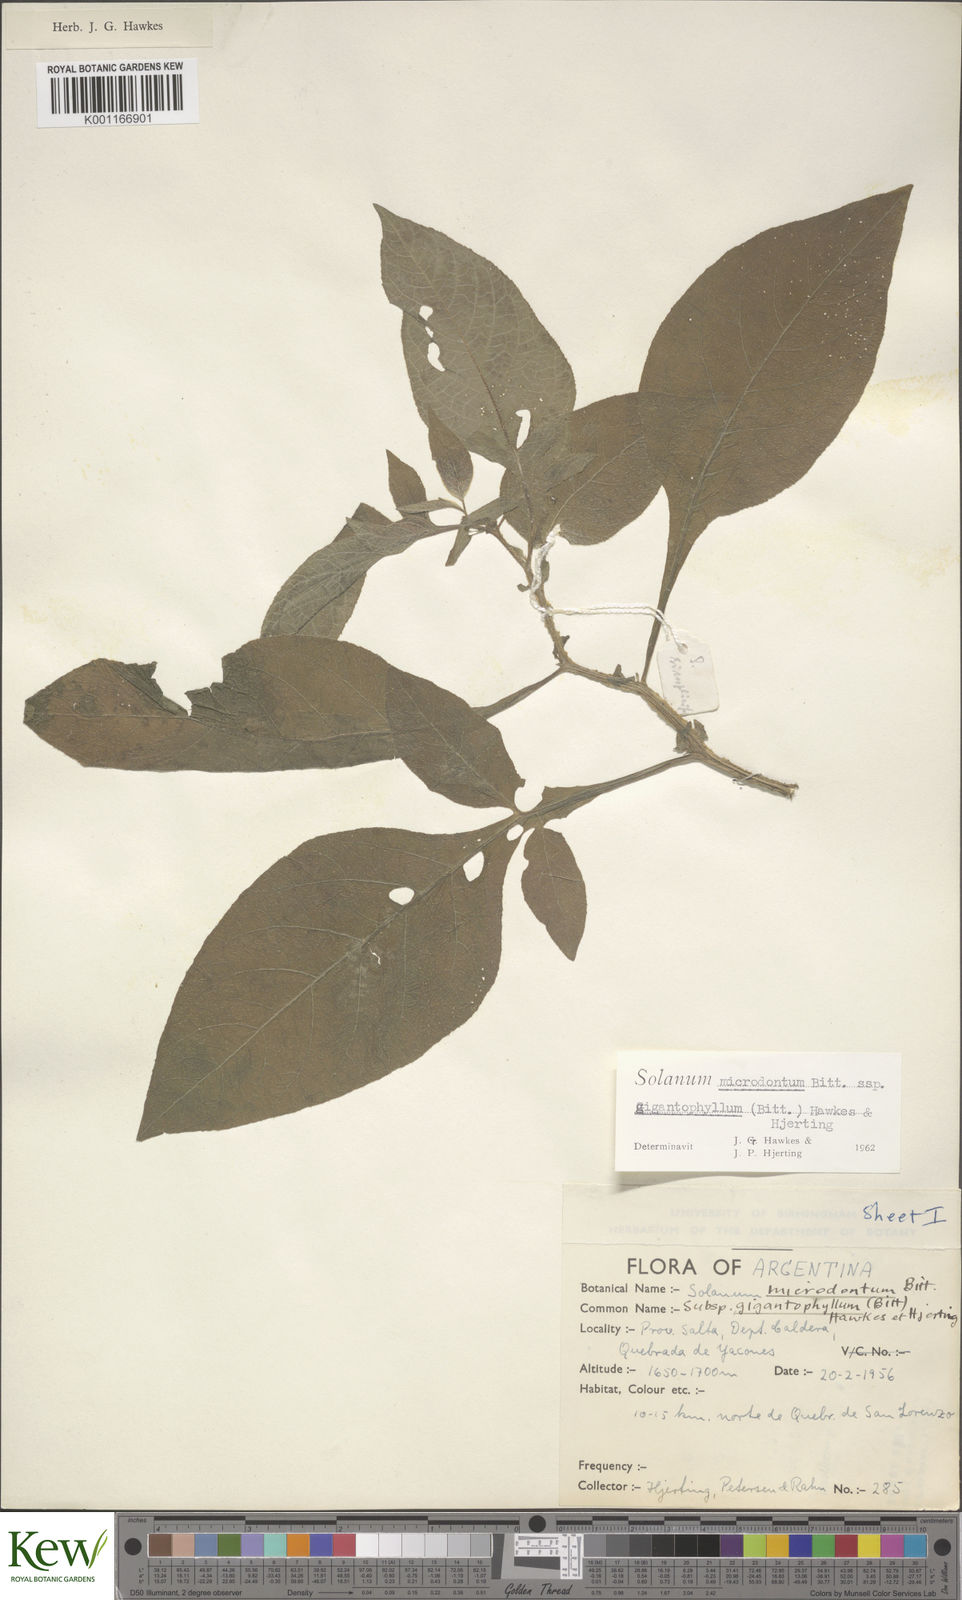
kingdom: Plantae
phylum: Tracheophyta
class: Magnoliopsida
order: Solanales
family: Solanaceae
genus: Solanum
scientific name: Solanum microdontum
